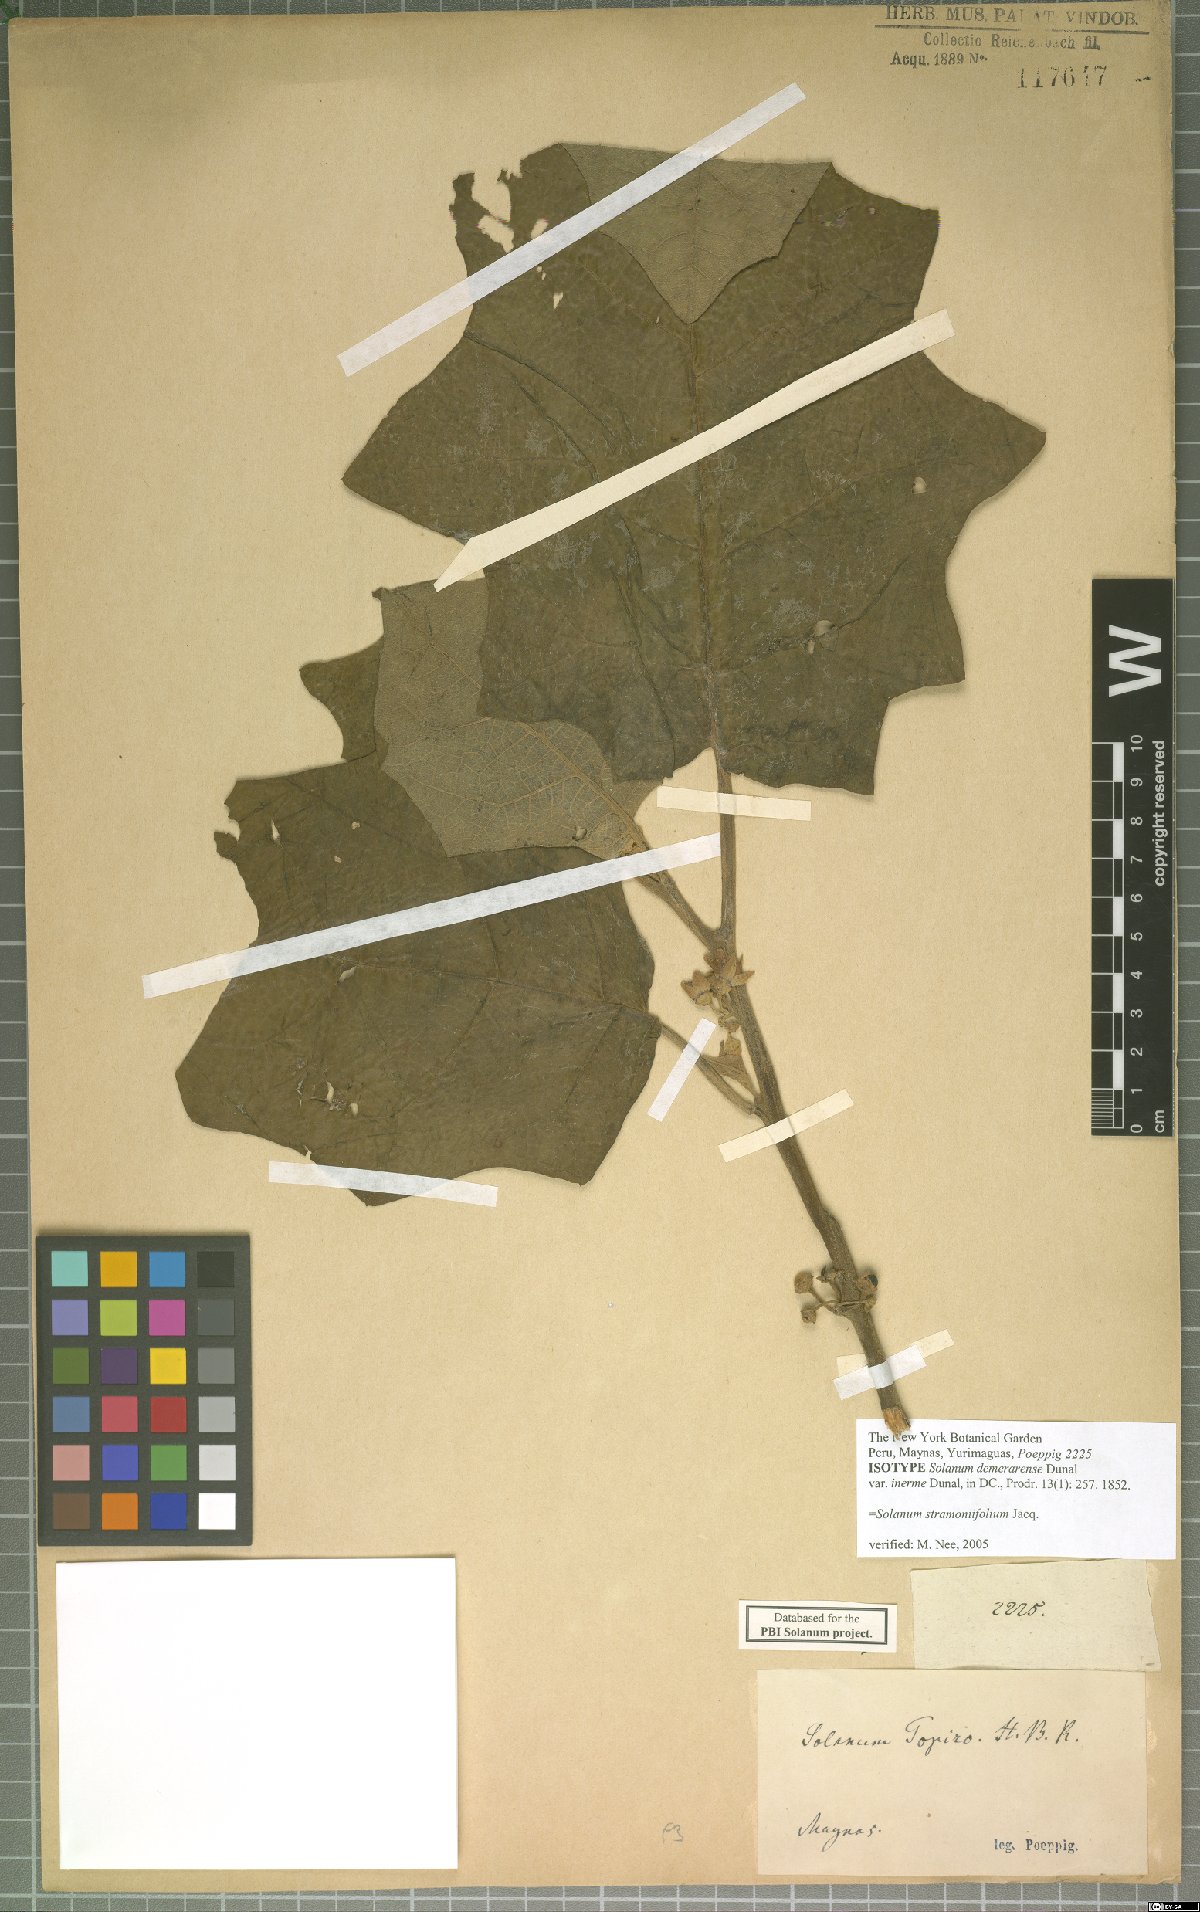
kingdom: Plantae
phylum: Tracheophyta
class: Magnoliopsida
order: Solanales
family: Solanaceae
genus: Solanum
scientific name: Solanum stramonifolium
